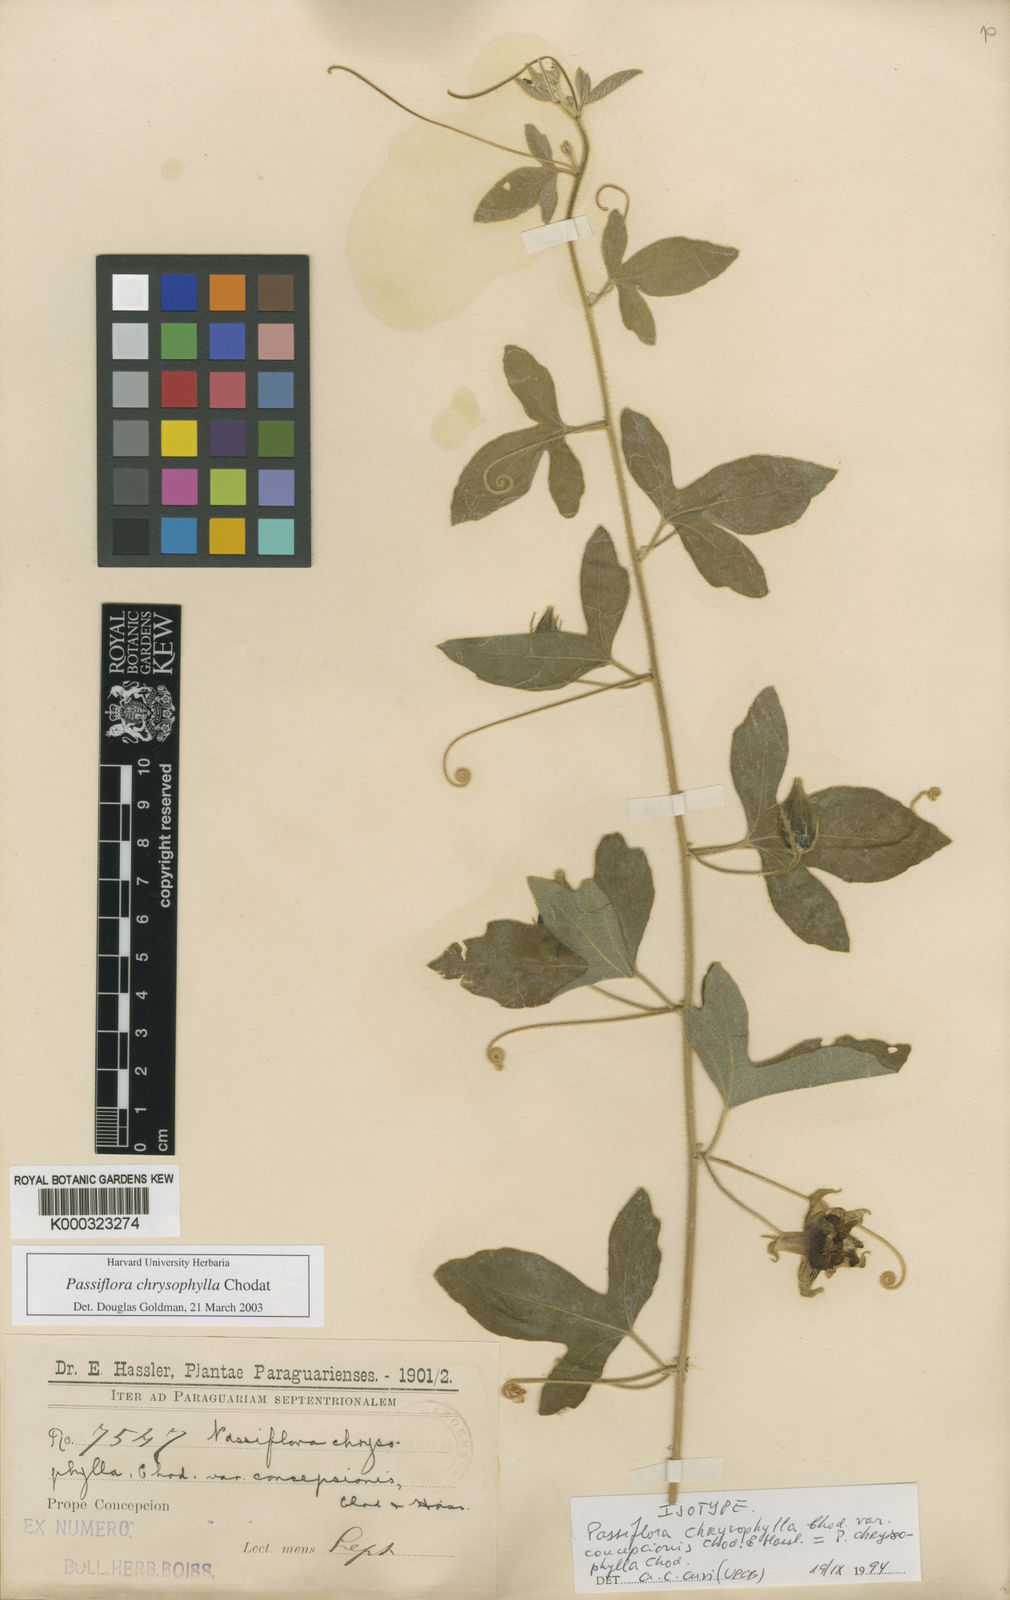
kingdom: Plantae
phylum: Tracheophyta
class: Magnoliopsida
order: Malpighiales
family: Passifloraceae
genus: Passiflora
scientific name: Passiflora chrysophylla
